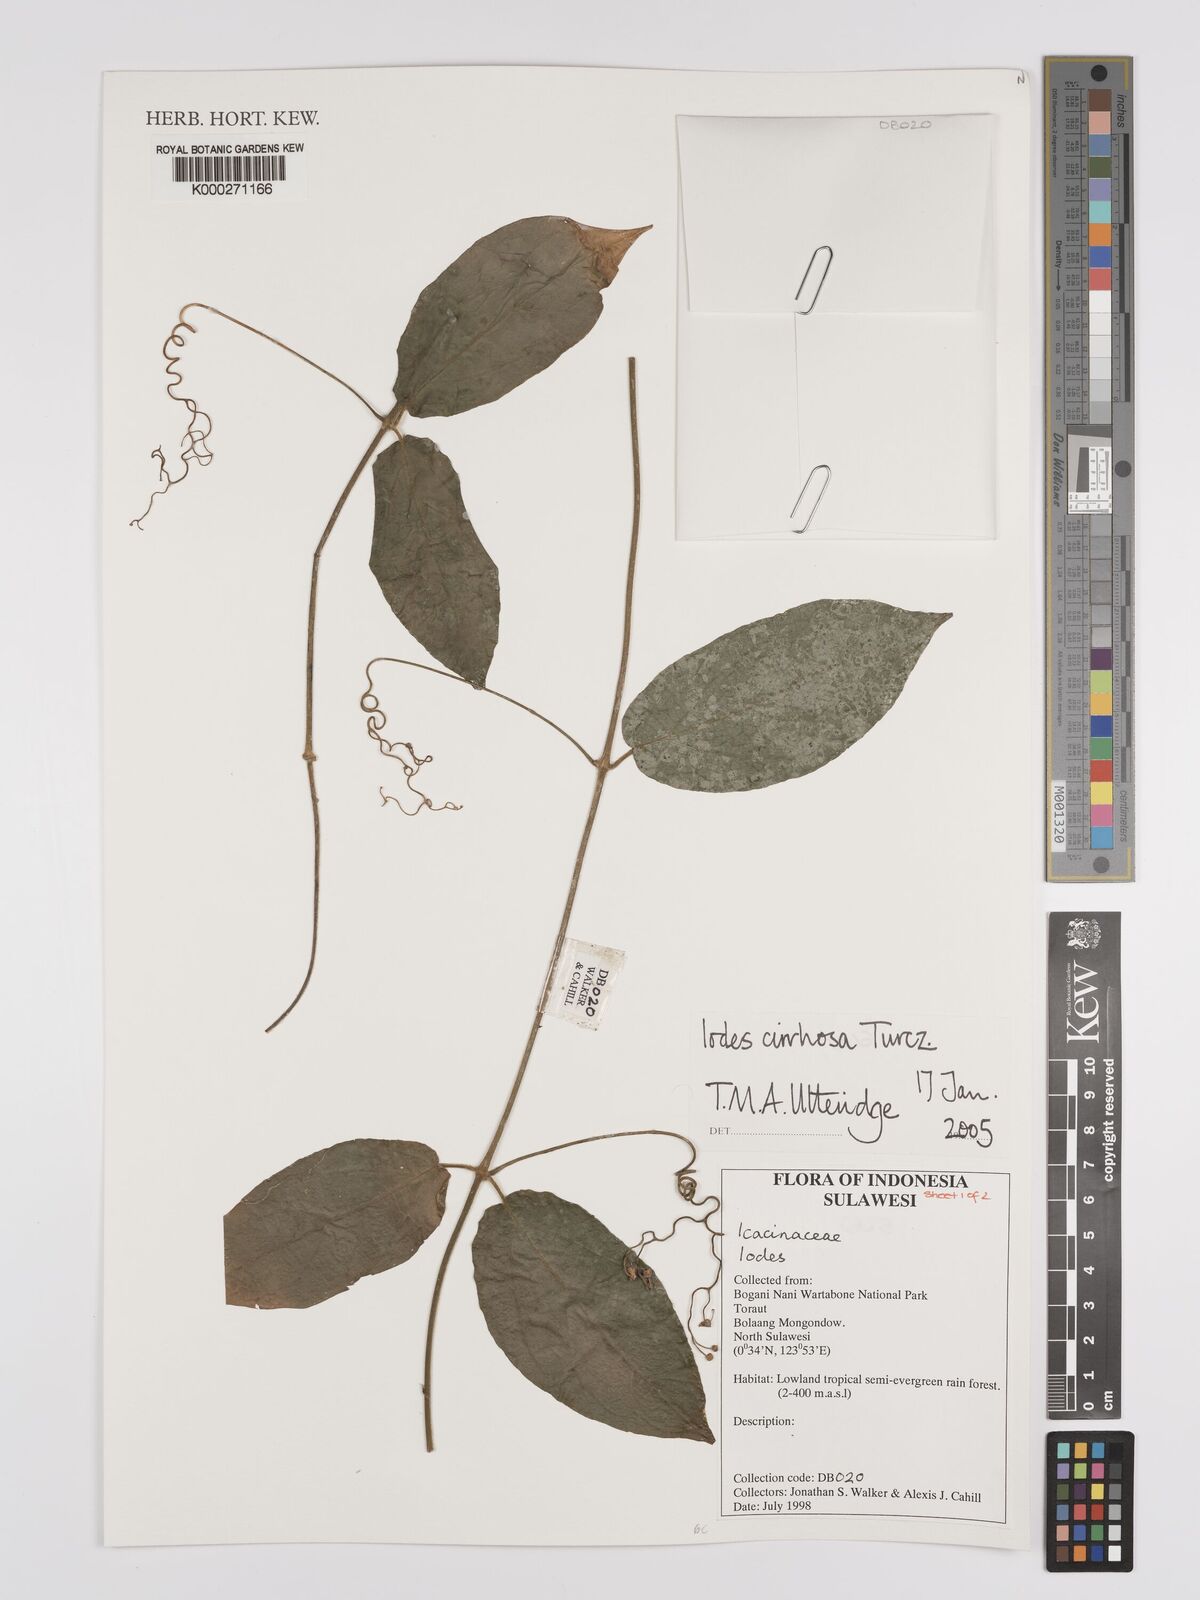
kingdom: Plantae
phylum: Tracheophyta
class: Magnoliopsida
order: Icacinales
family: Icacinaceae
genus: Iodes
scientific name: Iodes cirrhosa
